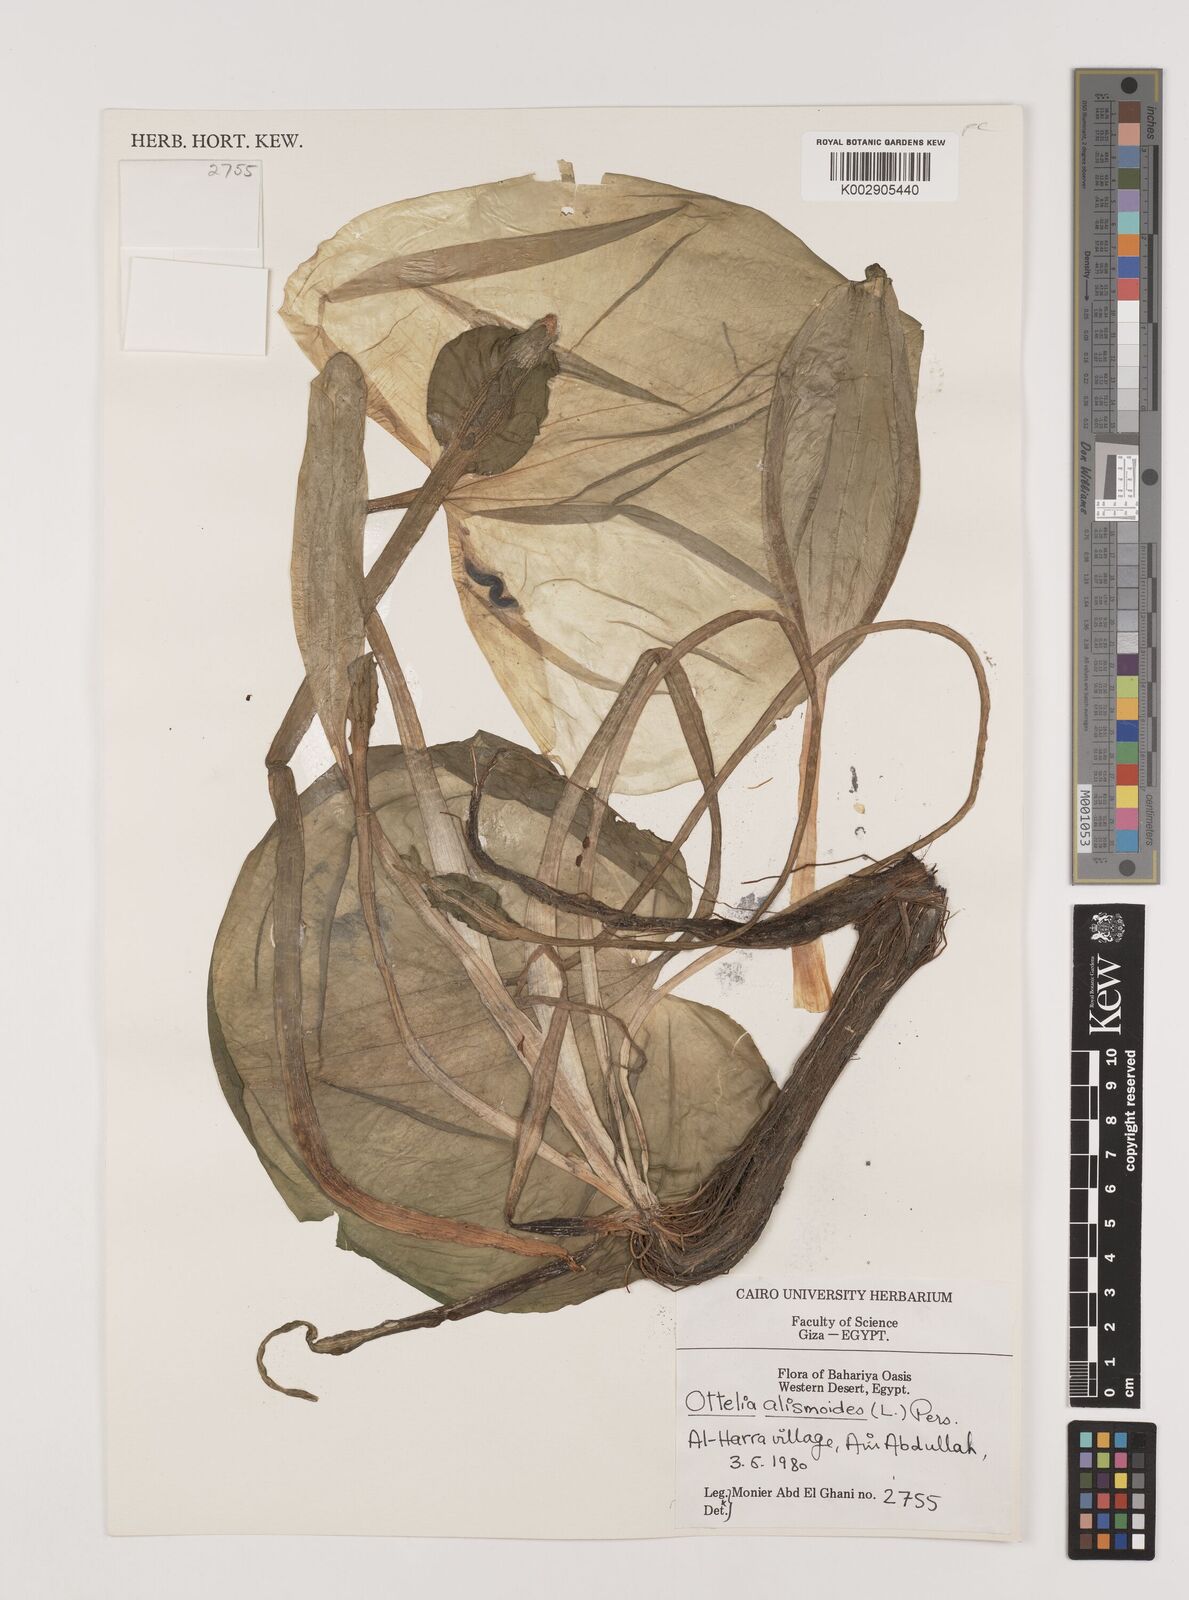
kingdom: Plantae
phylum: Tracheophyta
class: Liliopsida
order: Alismatales
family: Hydrocharitaceae
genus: Ottelia
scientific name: Ottelia alismoides
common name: Duck-lettuce
